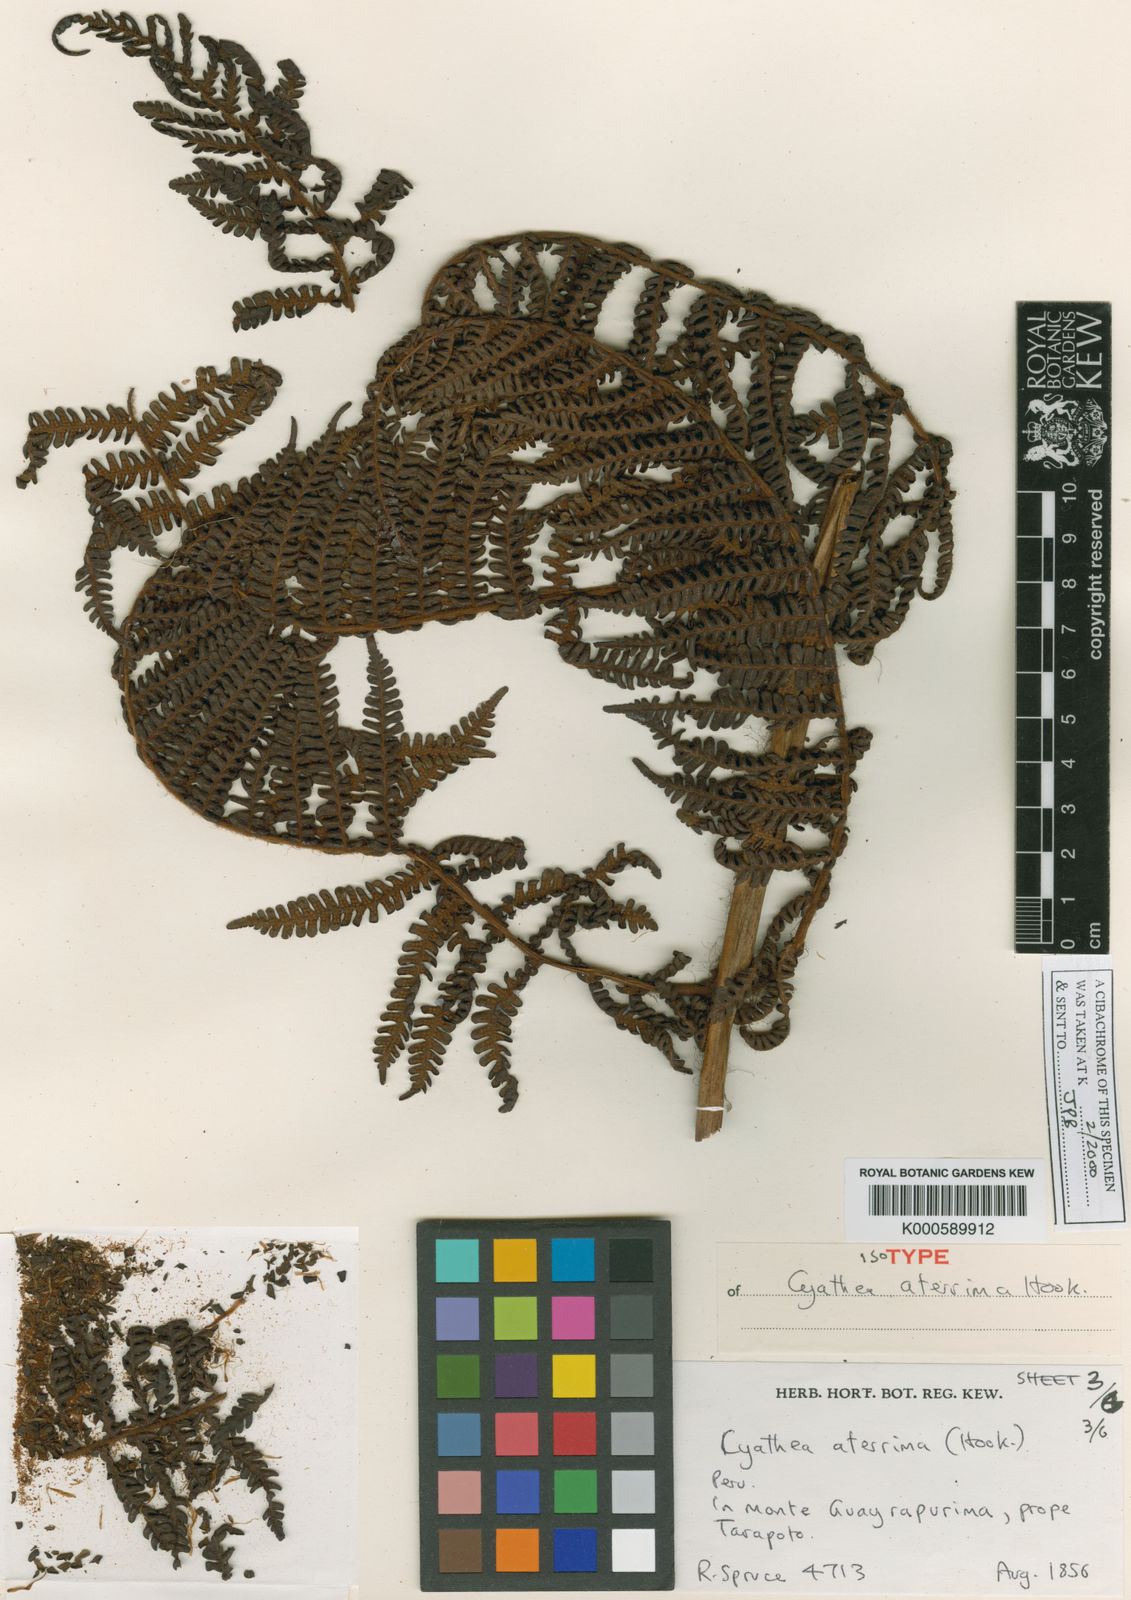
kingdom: Plantae
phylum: Tracheophyta
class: Polypodiopsida
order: Cyatheales
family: Cyatheaceae
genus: Cyathea
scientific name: Cyathea aterrima
